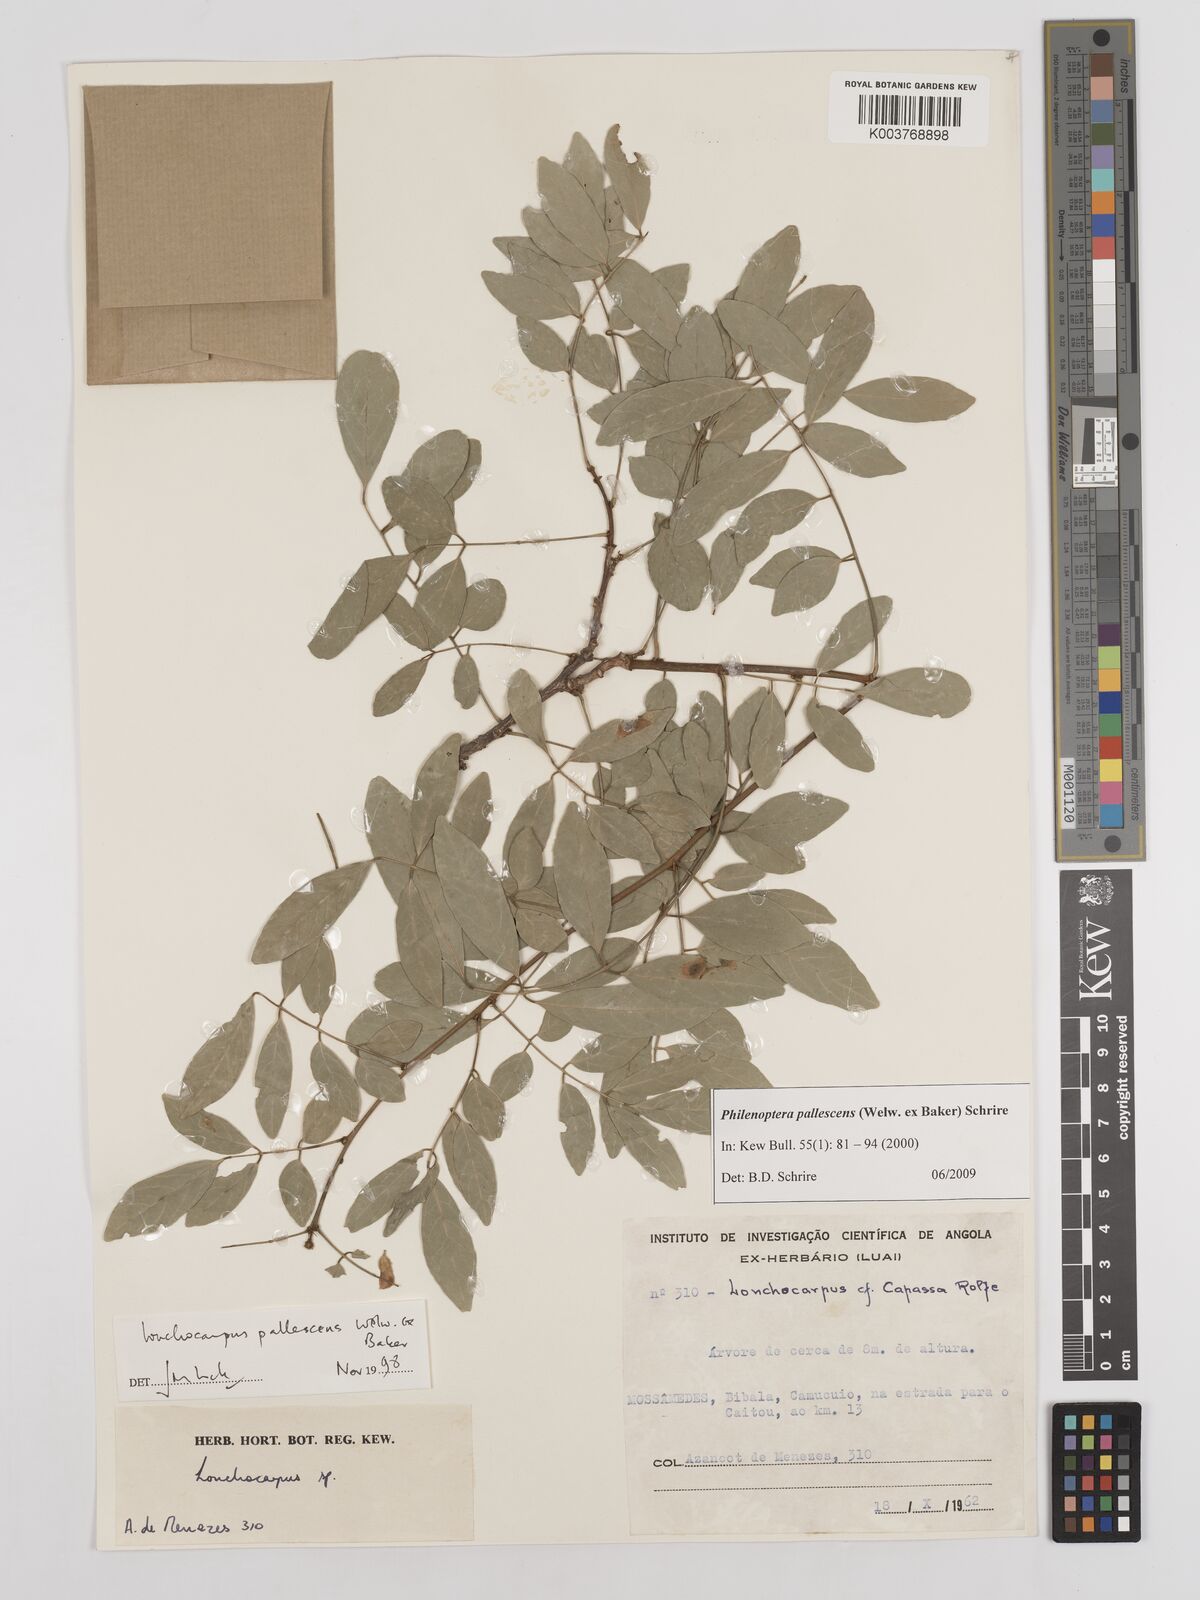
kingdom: Plantae
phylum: Tracheophyta
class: Magnoliopsida
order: Fabales
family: Fabaceae
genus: Philenoptera
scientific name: Philenoptera pallescens
